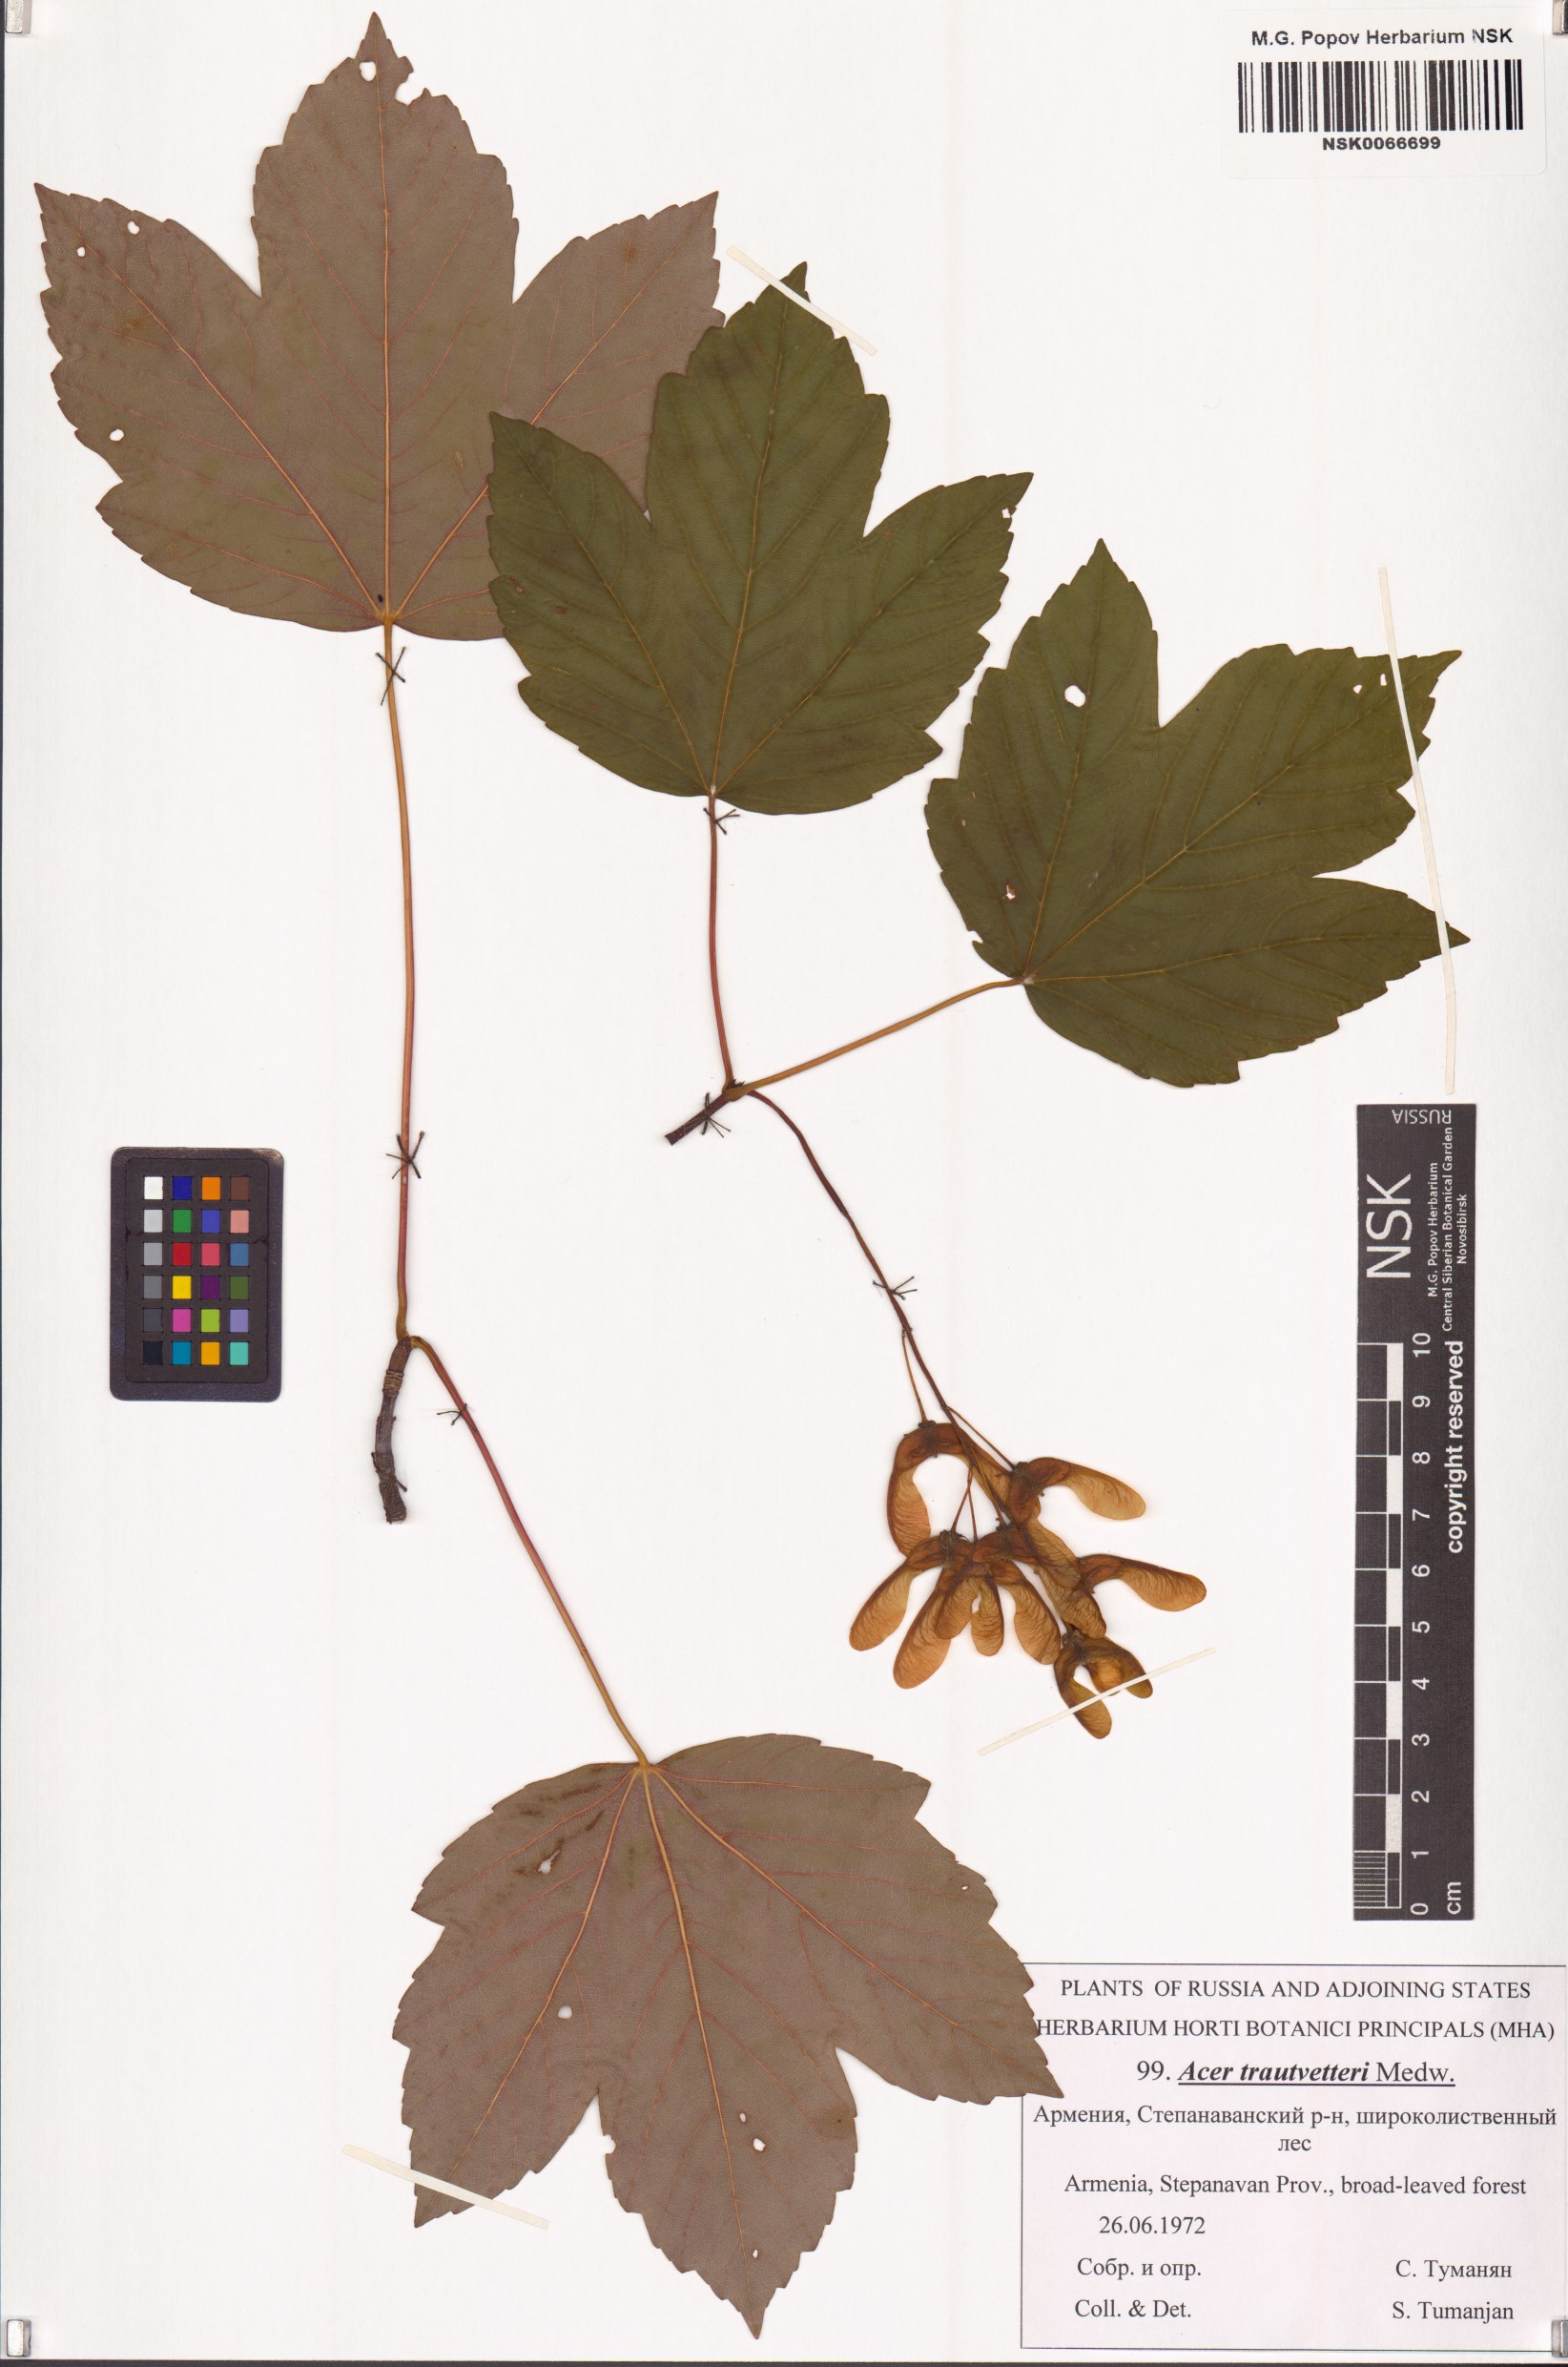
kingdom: Plantae
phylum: Tracheophyta
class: Magnoliopsida
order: Sapindales
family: Sapindaceae
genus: Acer
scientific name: Acer heldreichii
